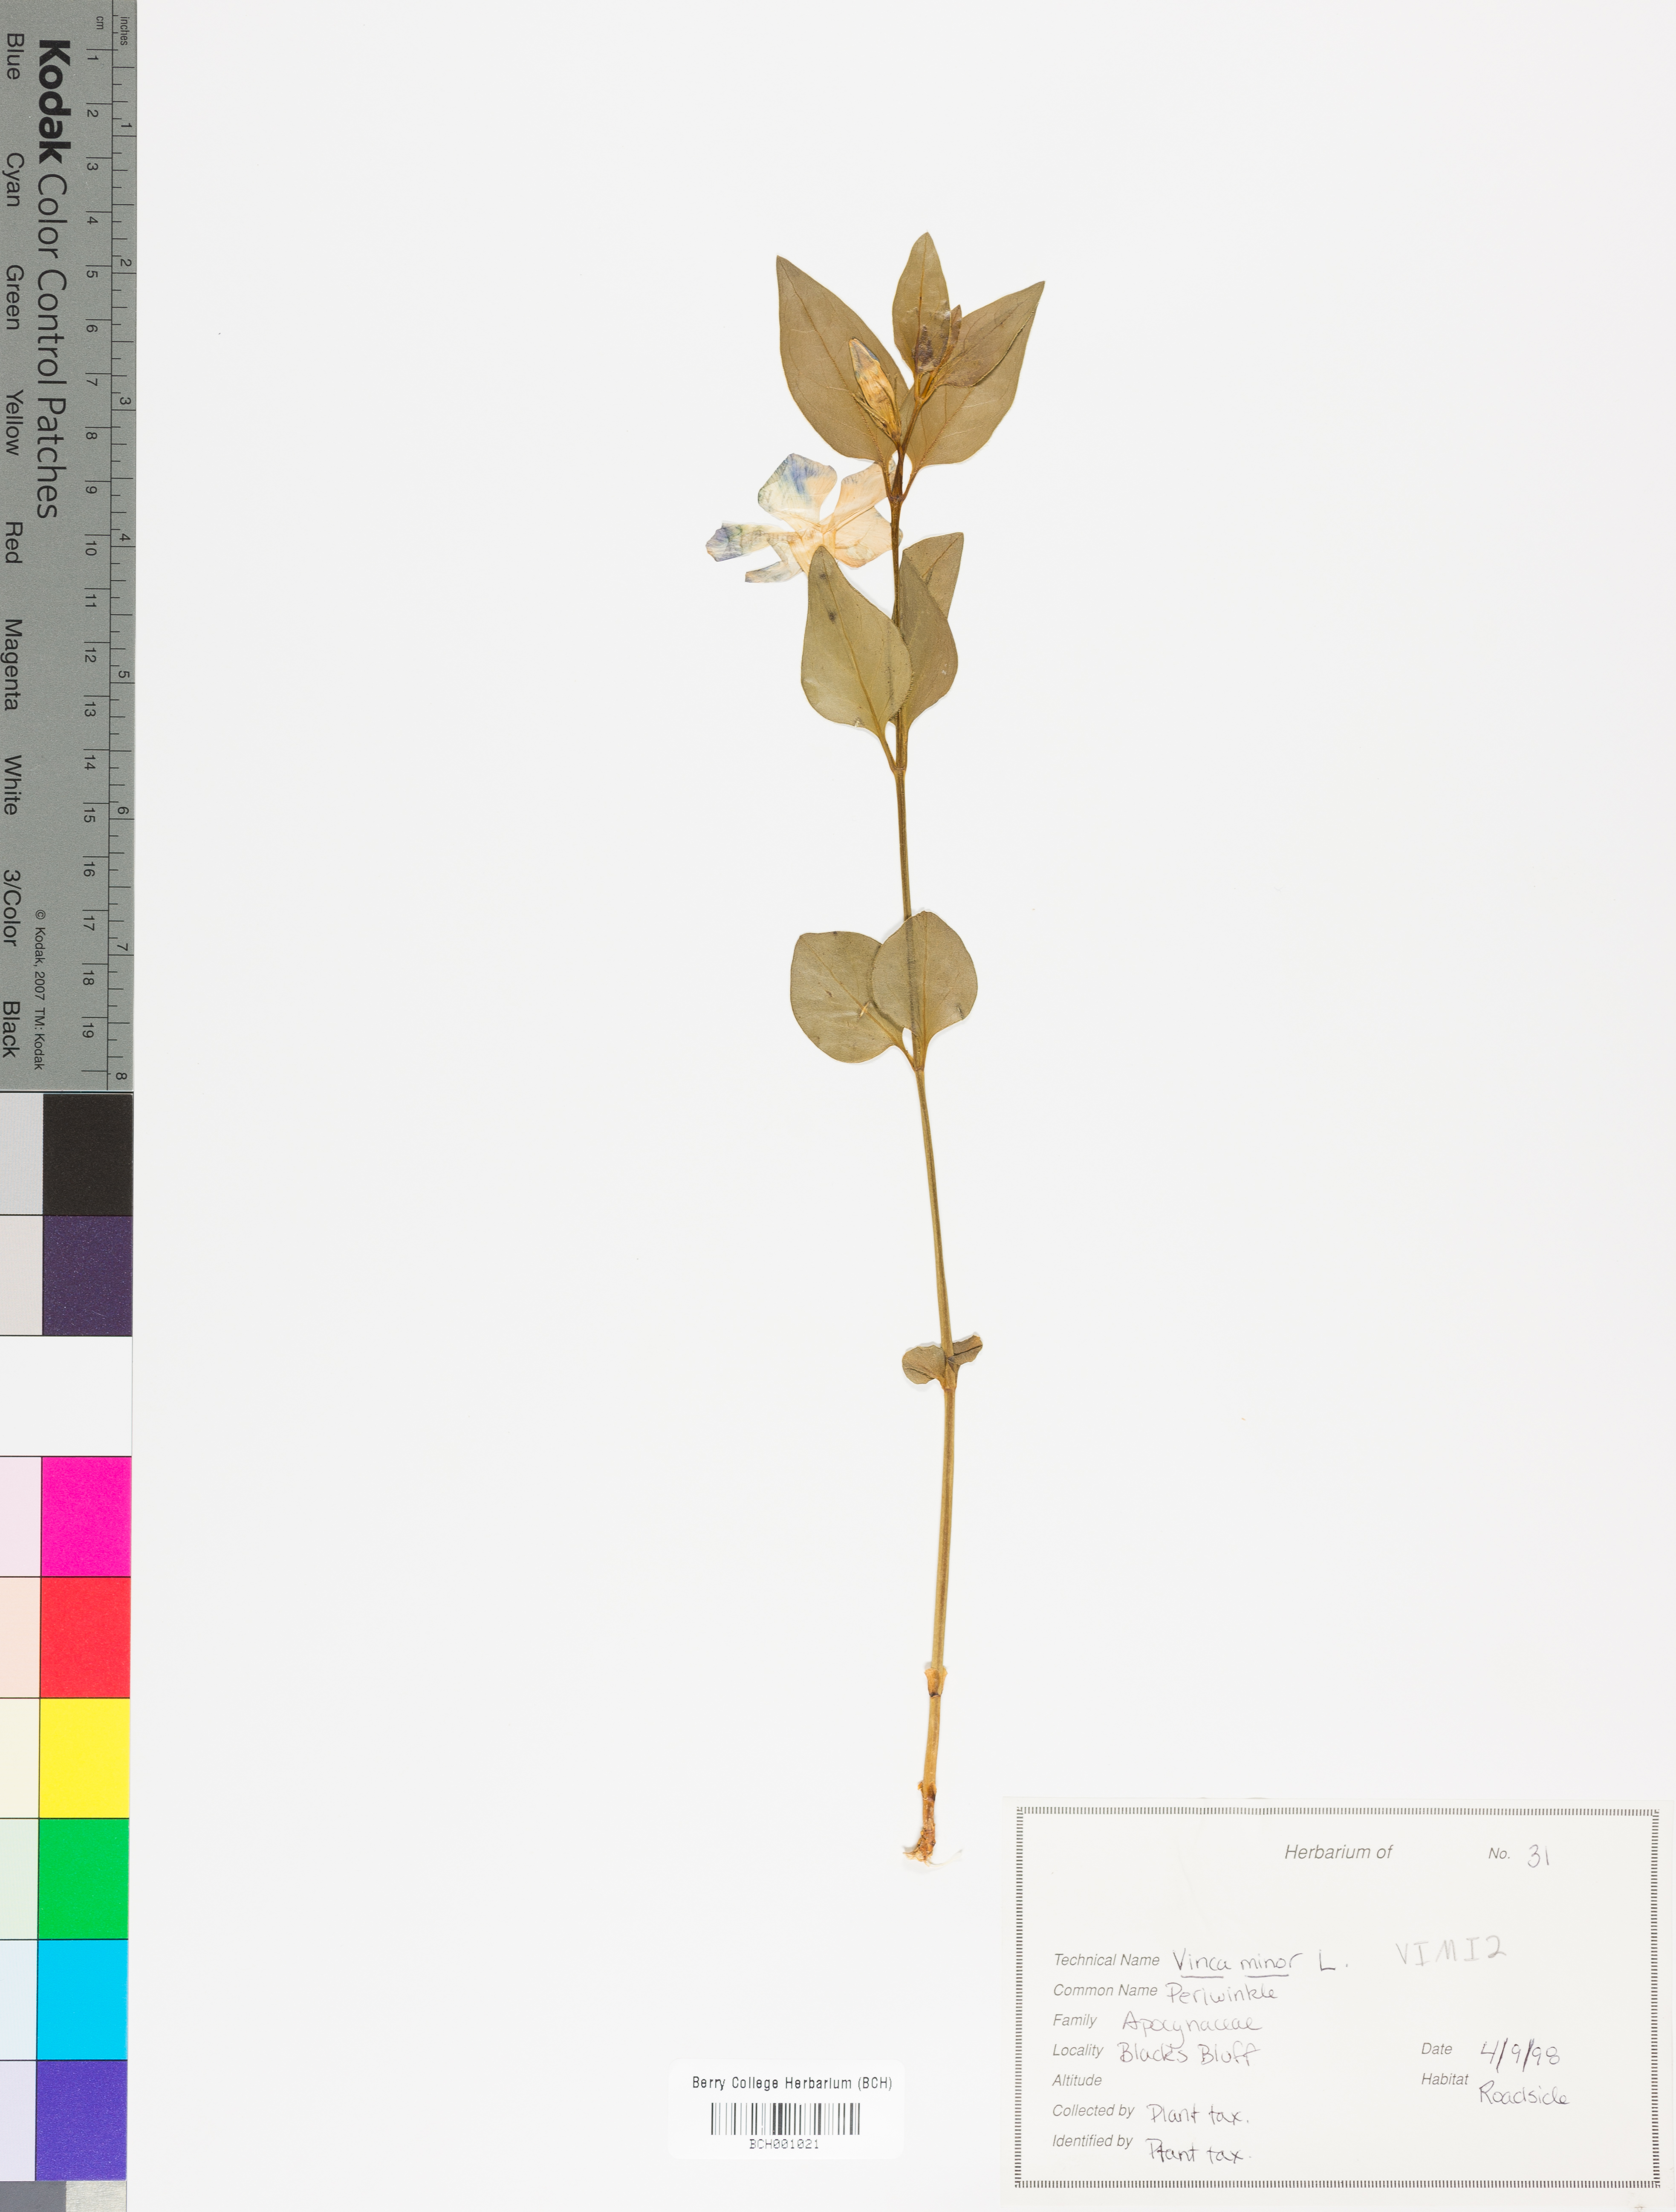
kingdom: Plantae
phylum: Tracheophyta
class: Magnoliopsida
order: Gentianales
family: Apocynaceae
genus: Vinca
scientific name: Vinca minor
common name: Lesser periwinkle
